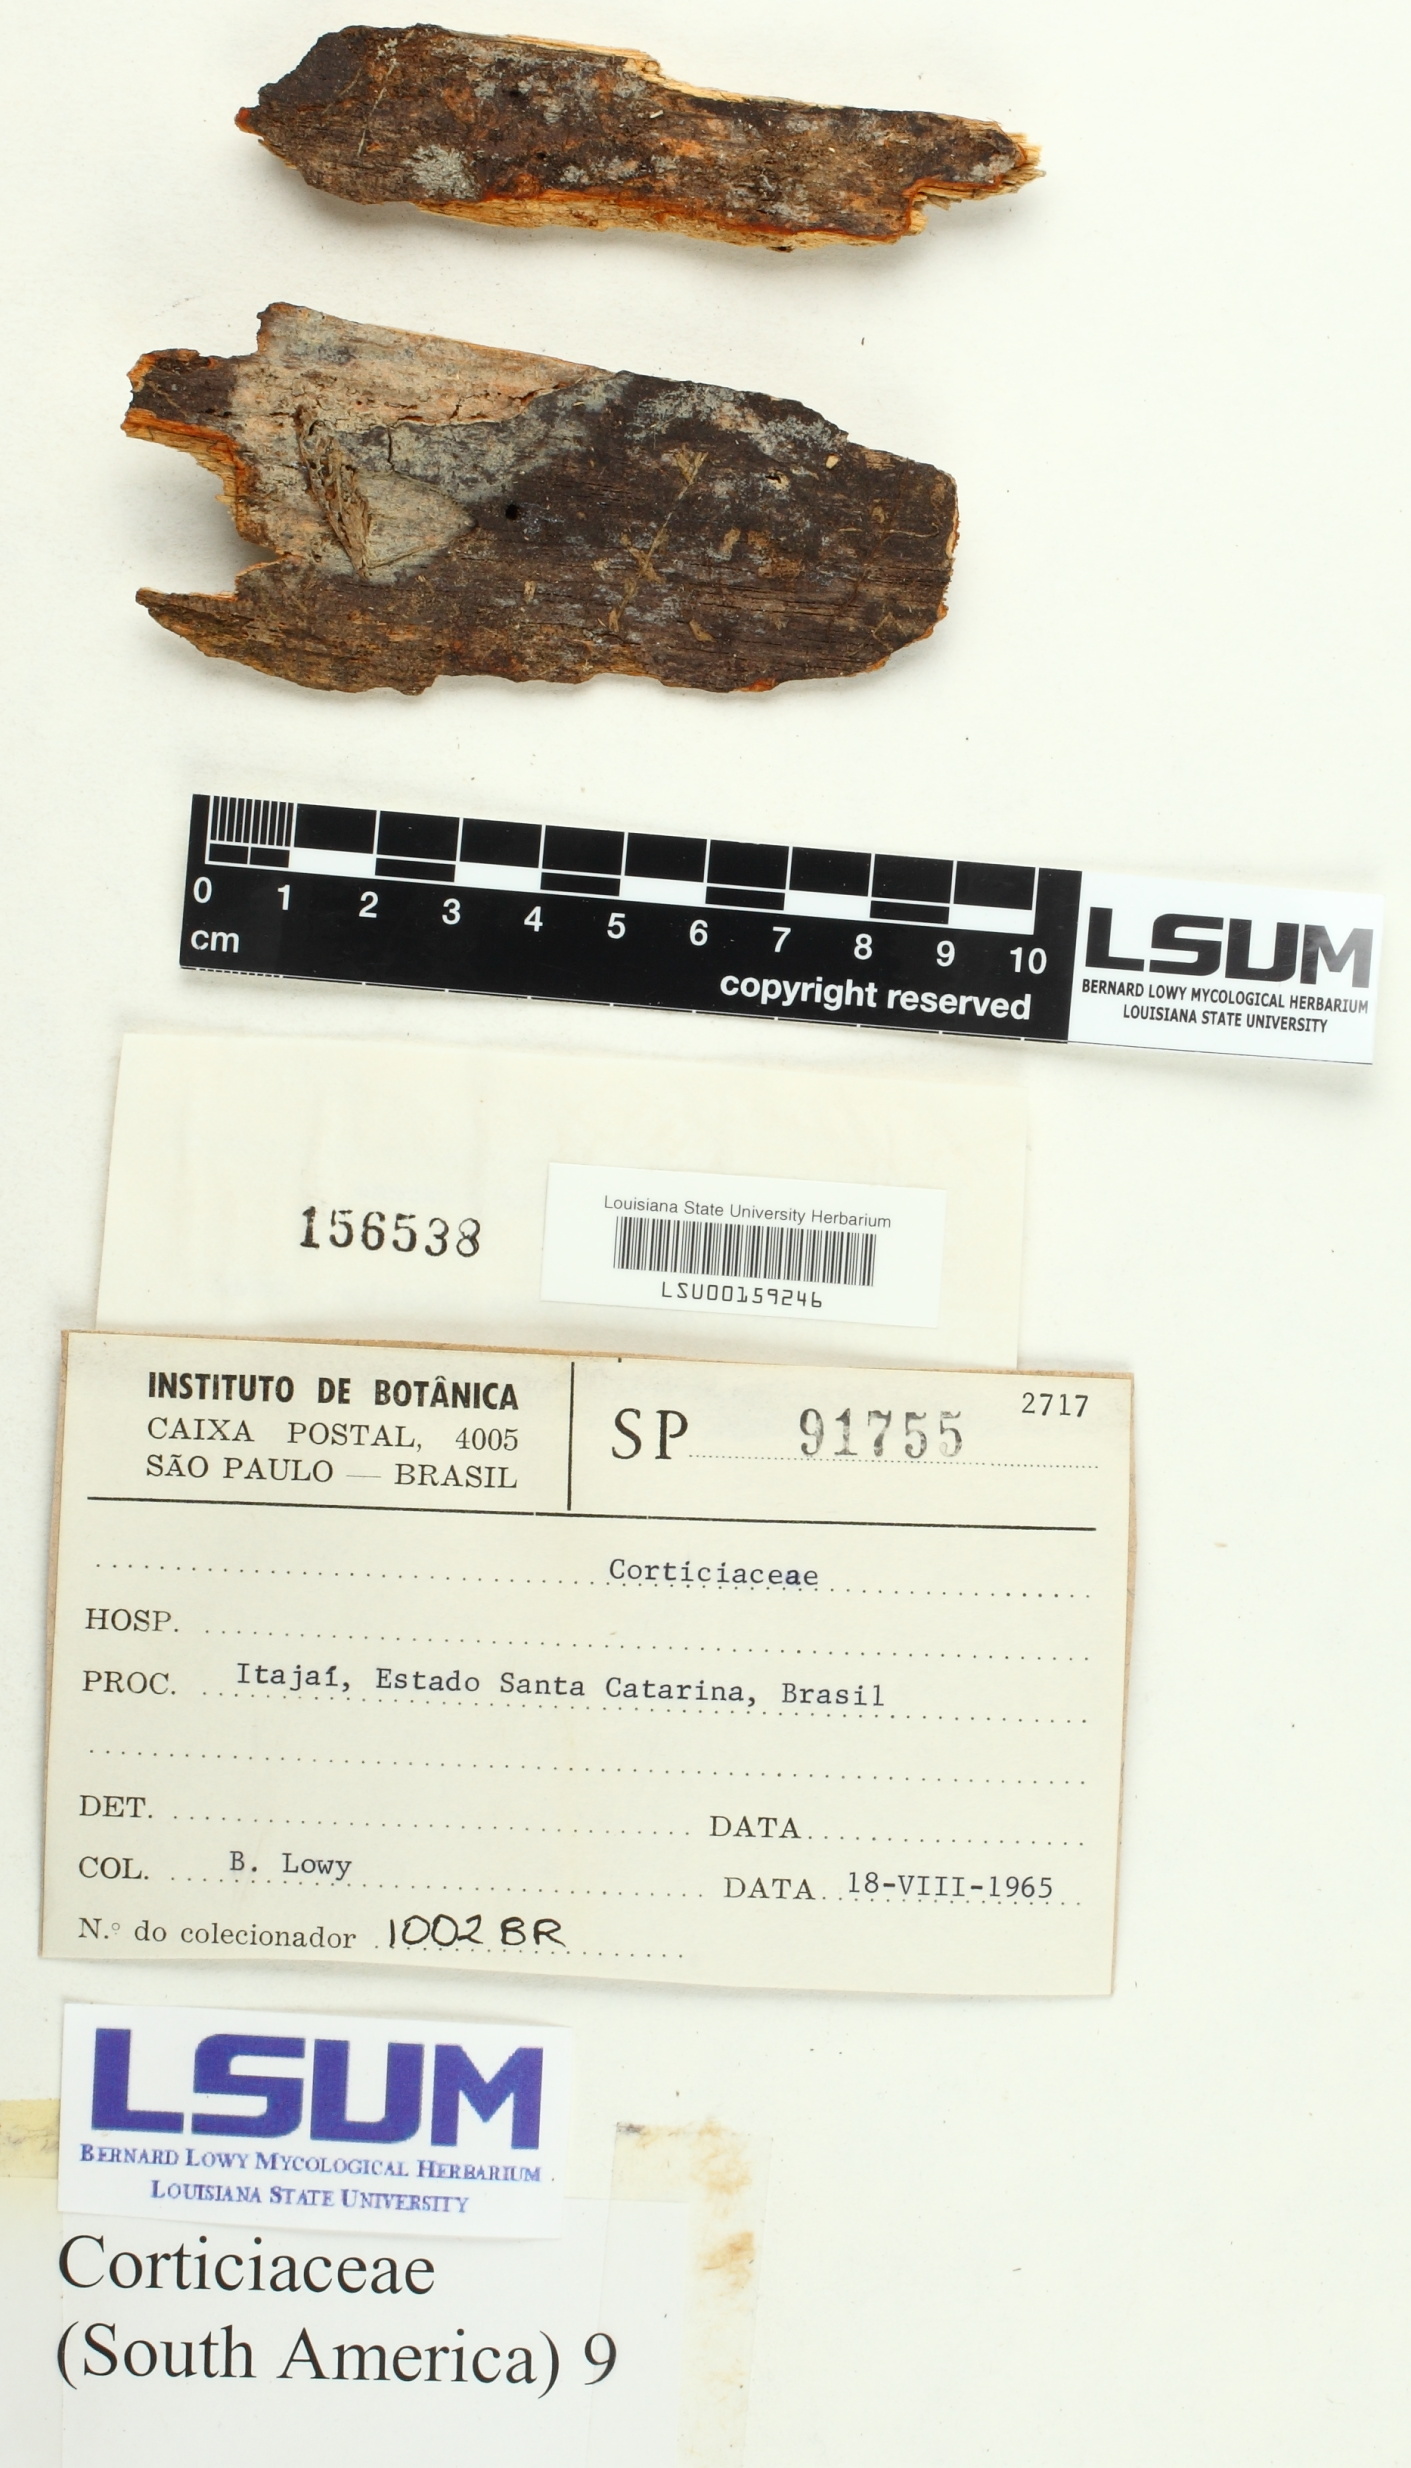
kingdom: Fungi
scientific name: Fungi
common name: Fungi
